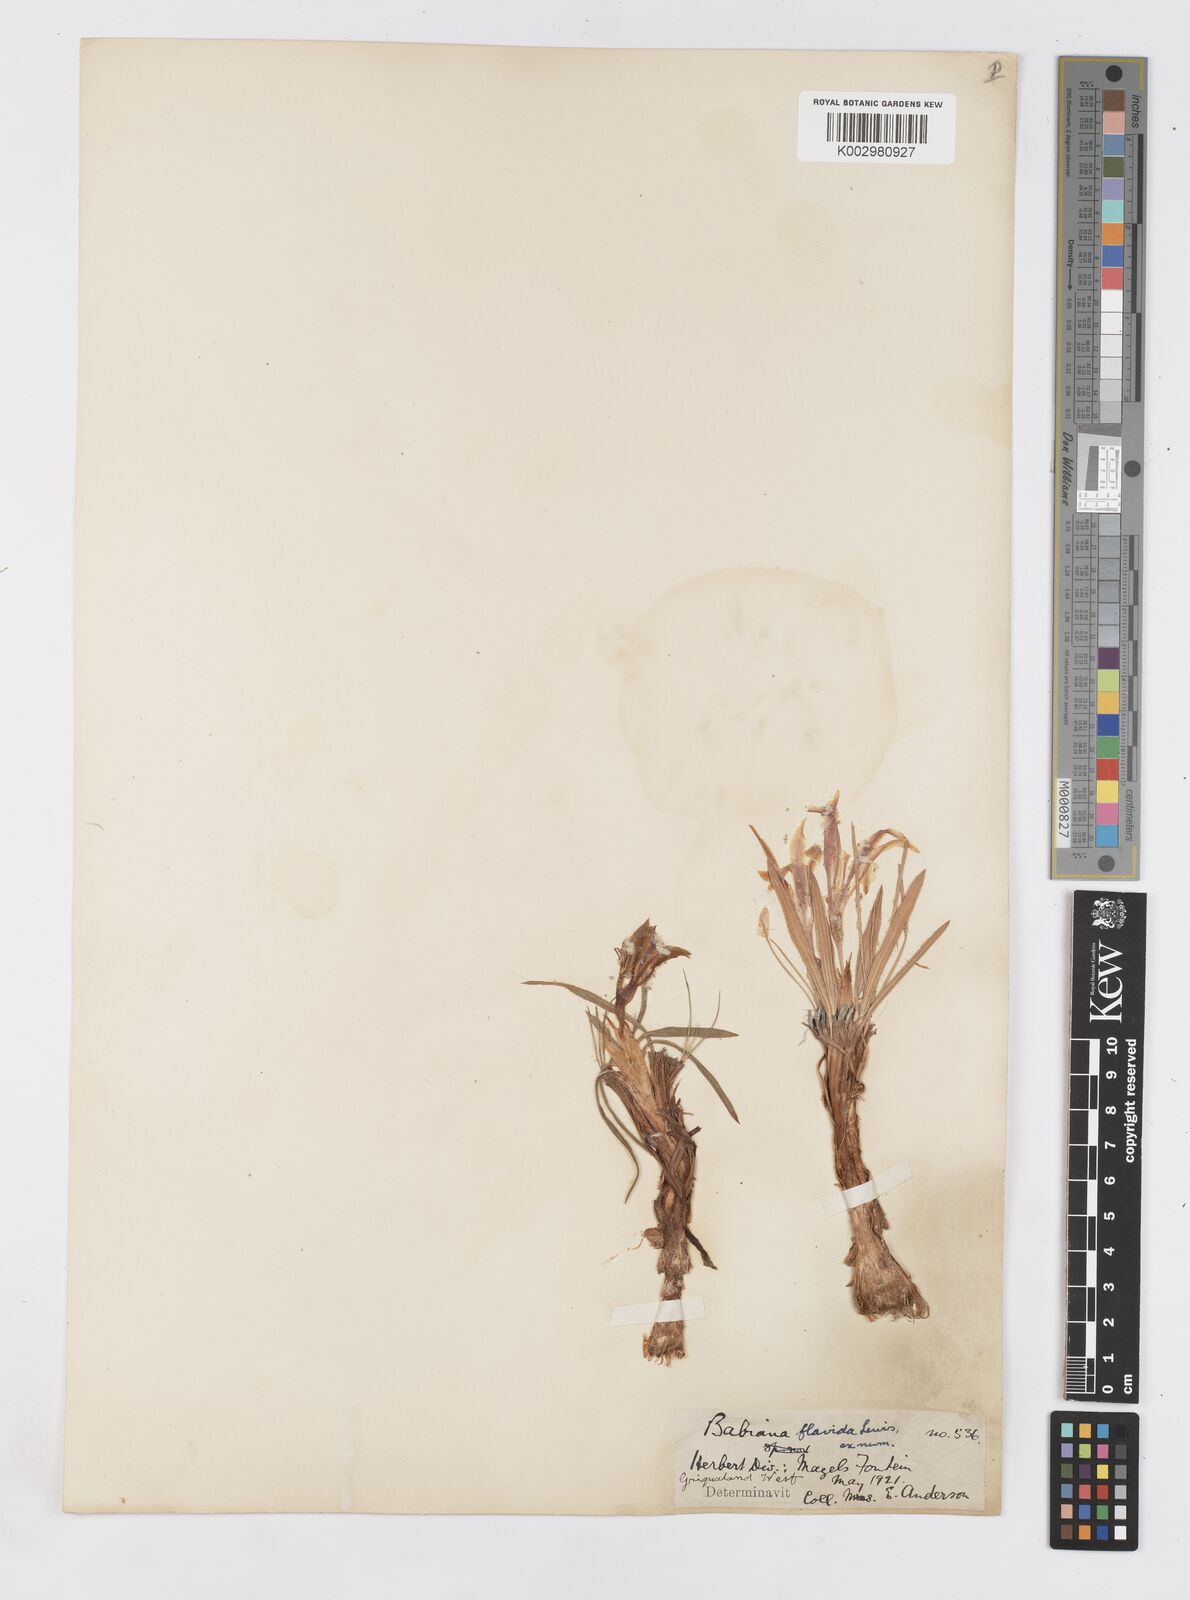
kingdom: Plantae
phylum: Tracheophyta
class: Liliopsida
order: Asparagales
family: Iridaceae
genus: Babiana
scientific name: Babiana hypogaea
